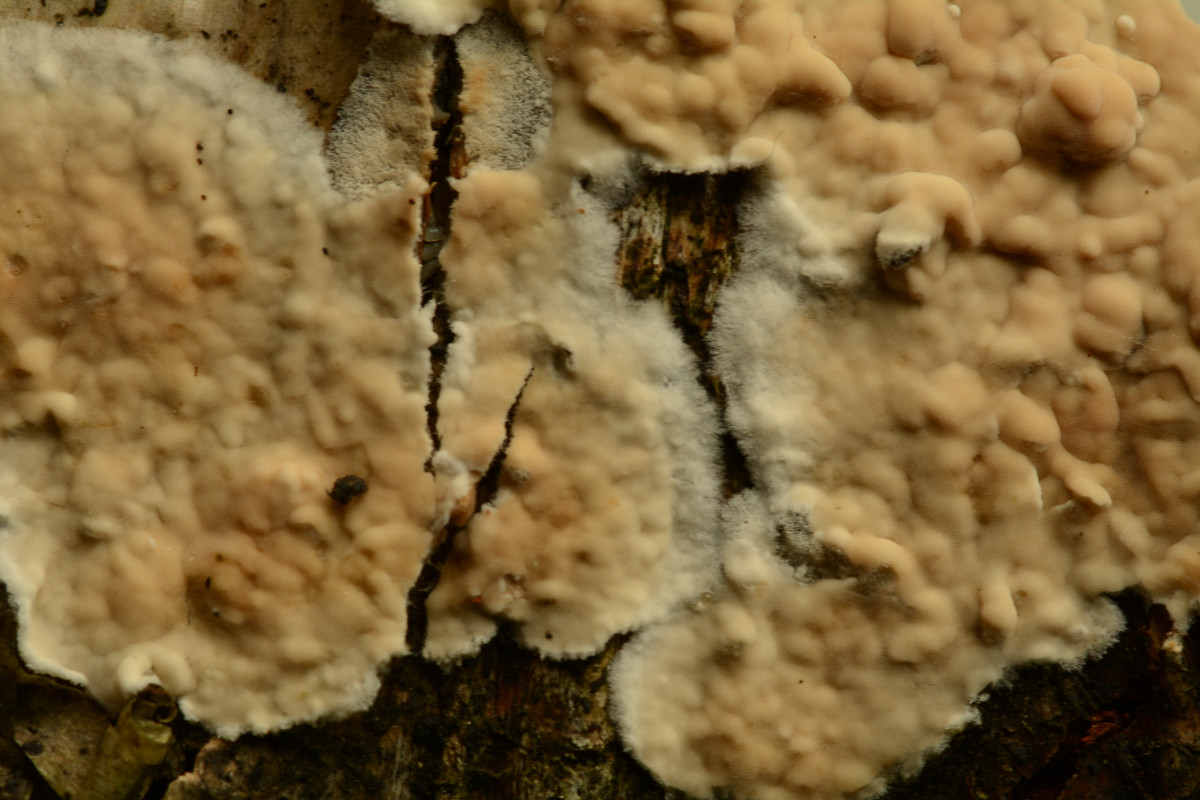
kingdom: Fungi
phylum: Basidiomycota
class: Agaricomycetes
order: Agaricales
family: Physalacriaceae
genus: Cylindrobasidium
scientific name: Cylindrobasidium evolvens
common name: sprækkehinde
